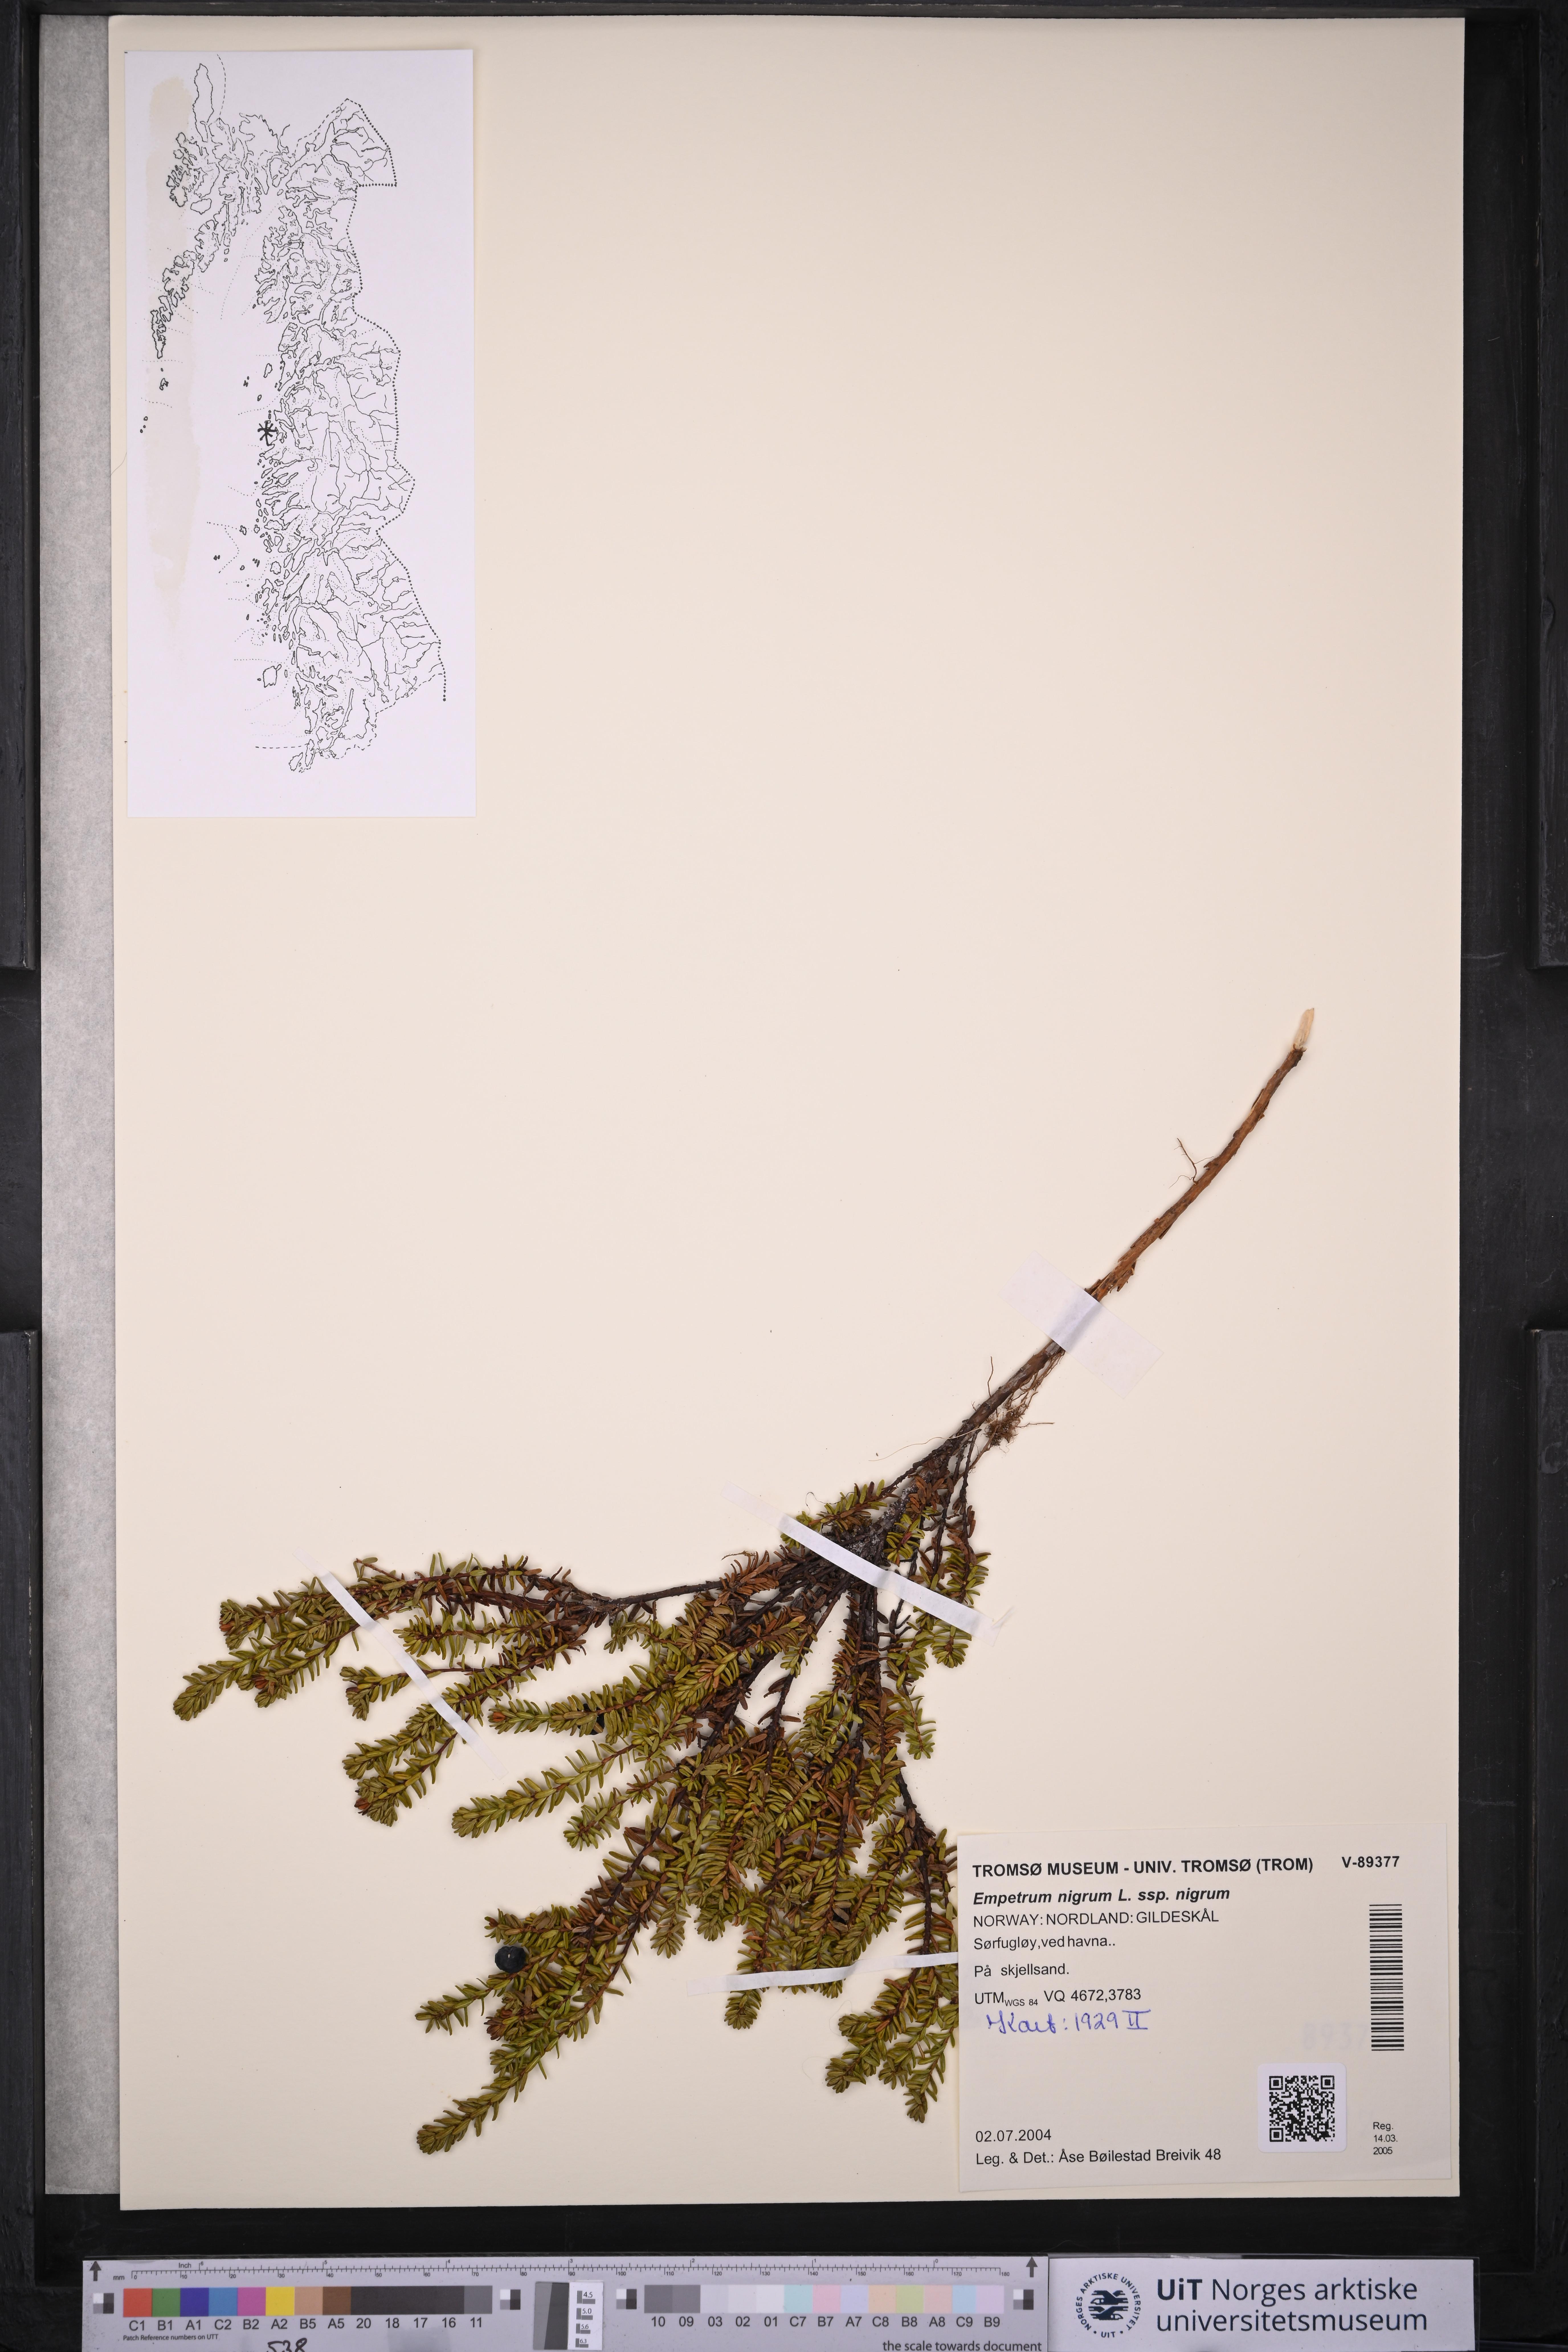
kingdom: Plantae
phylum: Tracheophyta
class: Magnoliopsida
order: Ericales
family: Ericaceae
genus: Empetrum
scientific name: Empetrum nigrum
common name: Black crowberry
